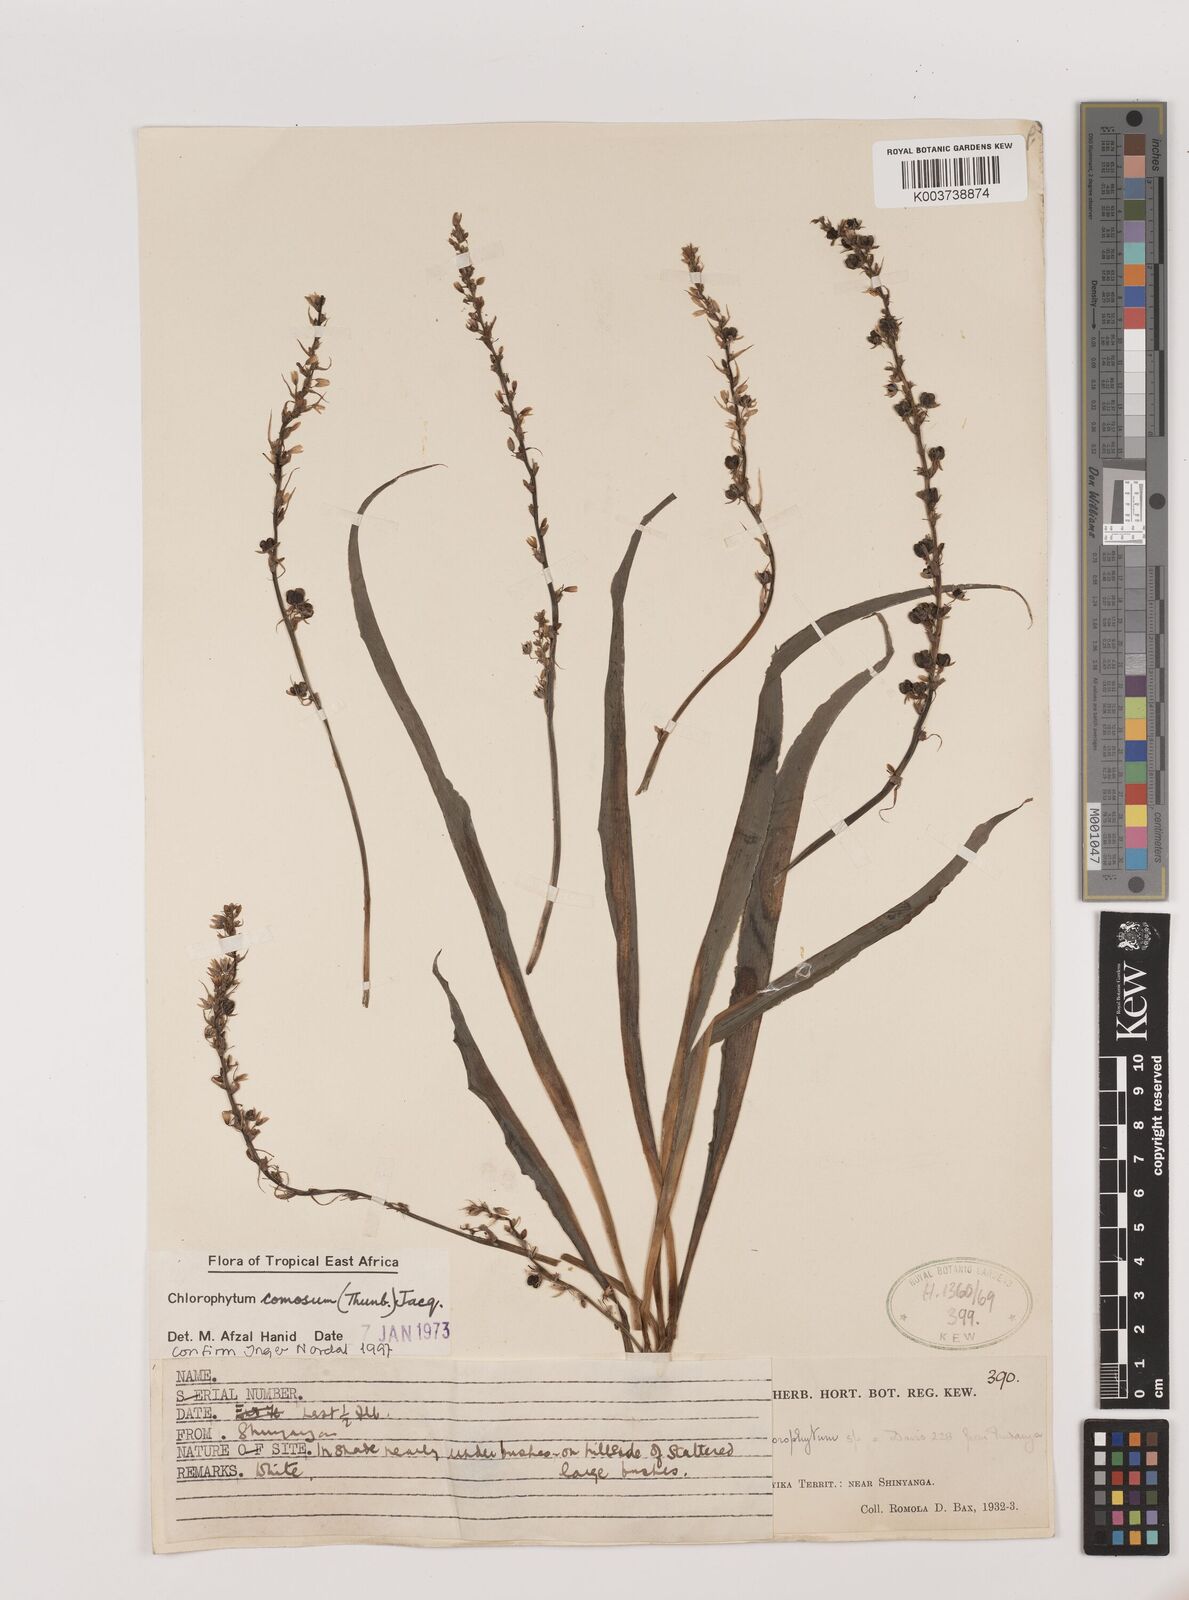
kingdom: Plantae
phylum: Tracheophyta
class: Liliopsida
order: Asparagales
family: Asparagaceae
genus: Chlorophytum
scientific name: Chlorophytum comosum
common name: Spider plant
